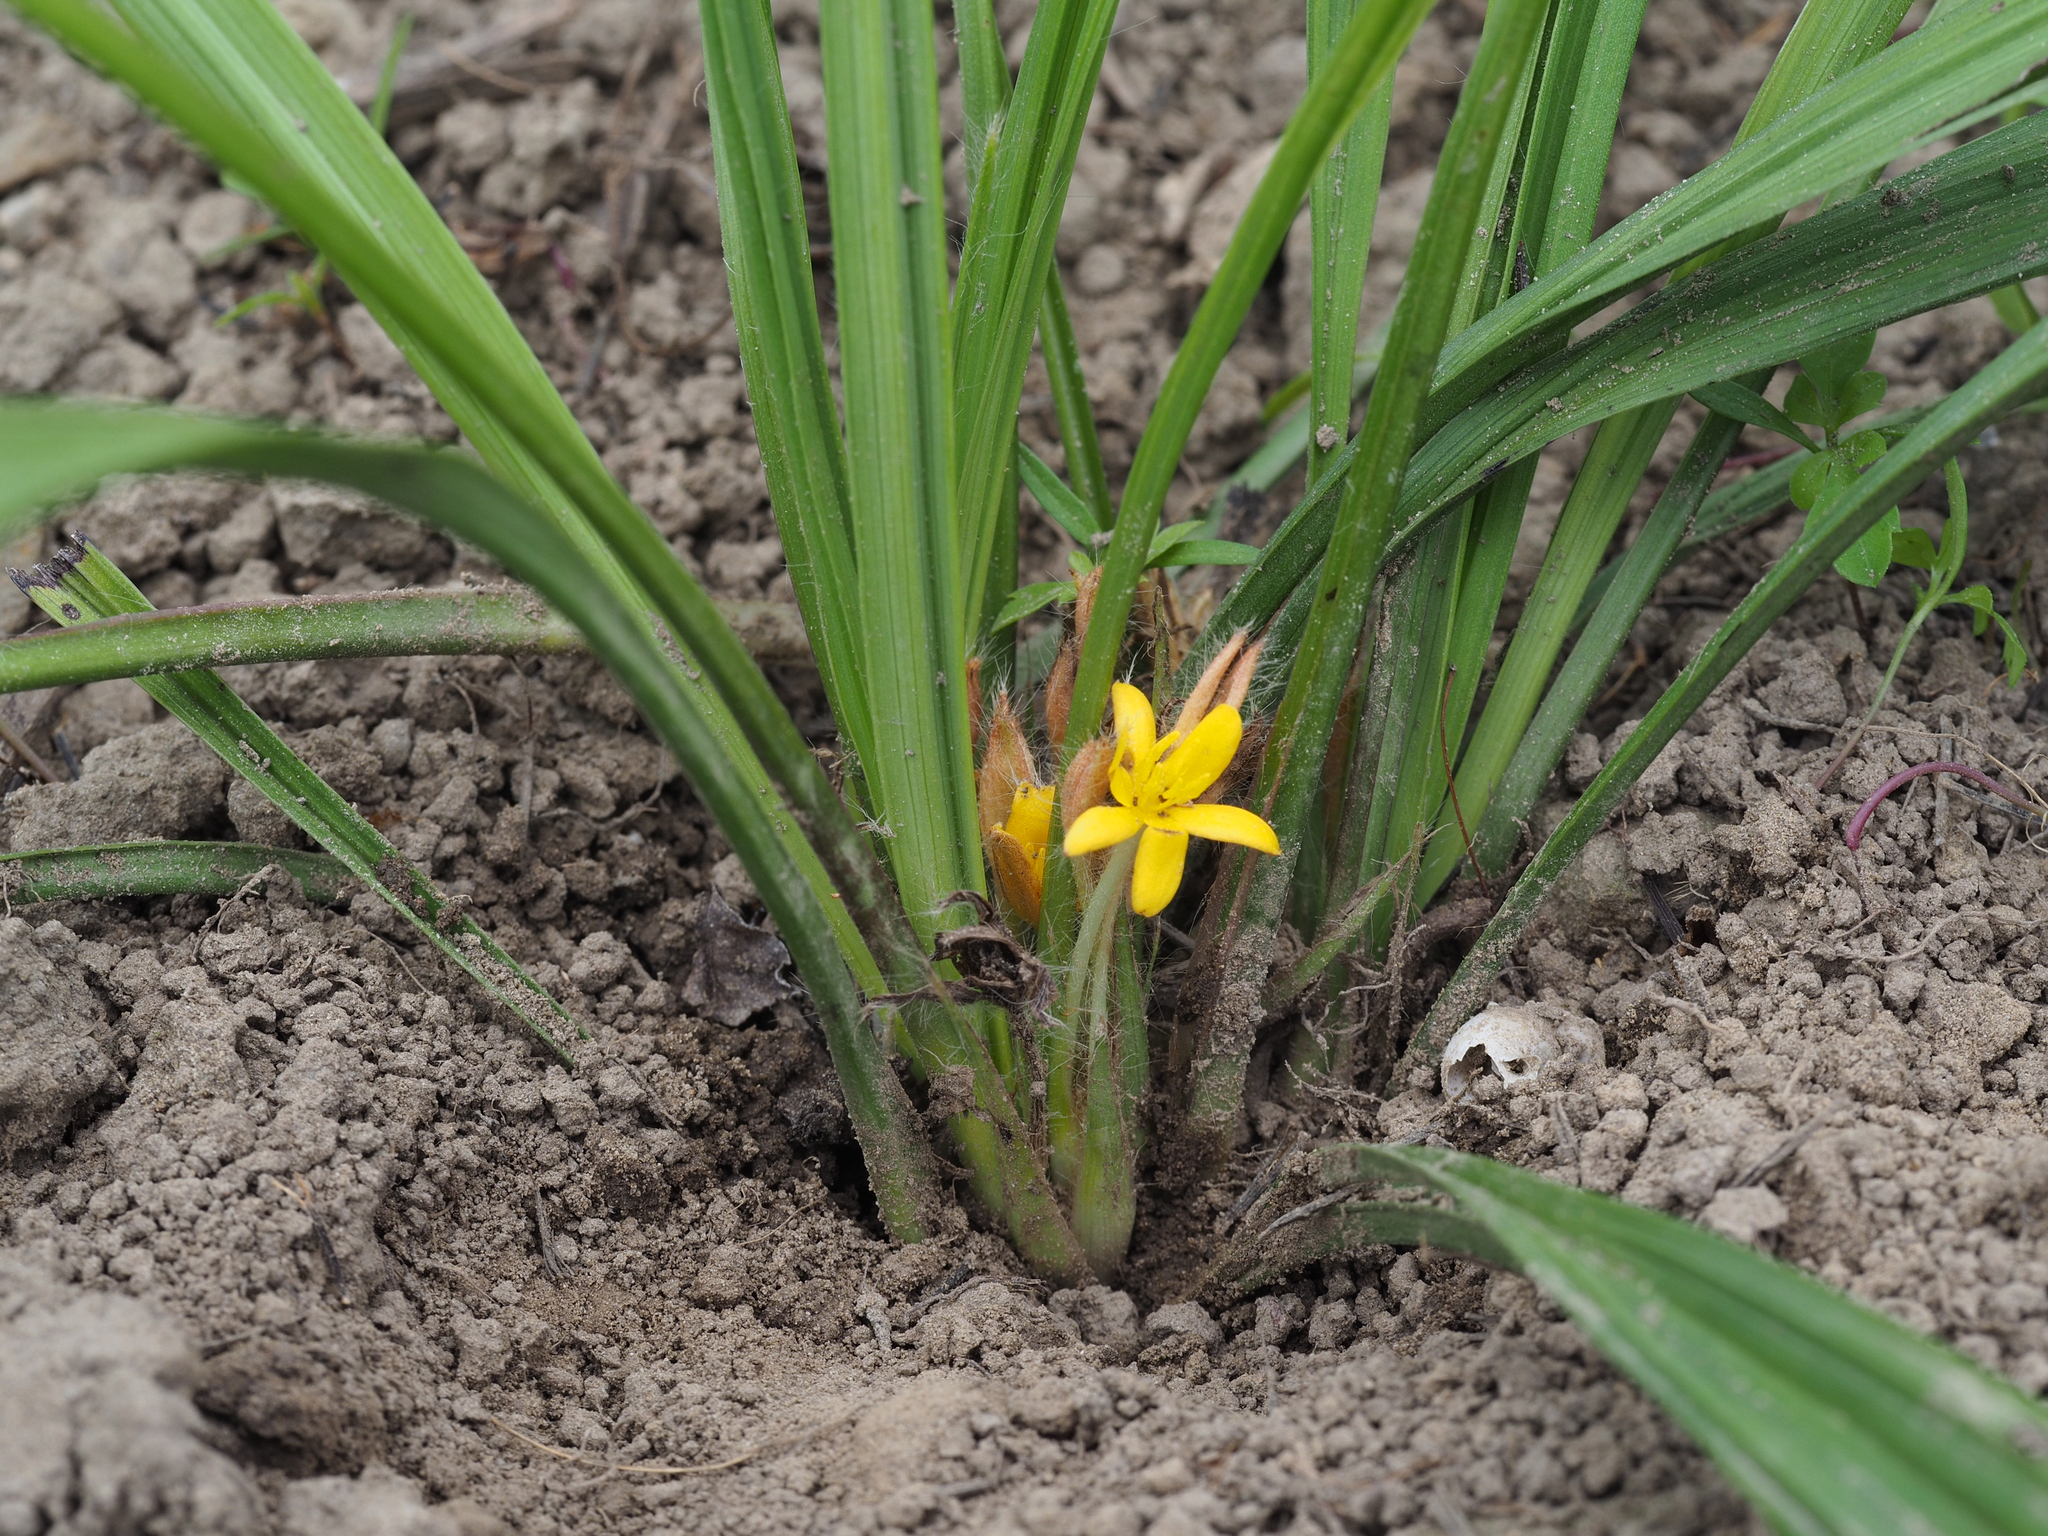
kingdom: Plantae
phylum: Tracheophyta
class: Liliopsida
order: Asparagales
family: Hypoxidaceae
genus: Curculigo
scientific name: Curculigo orchioides
